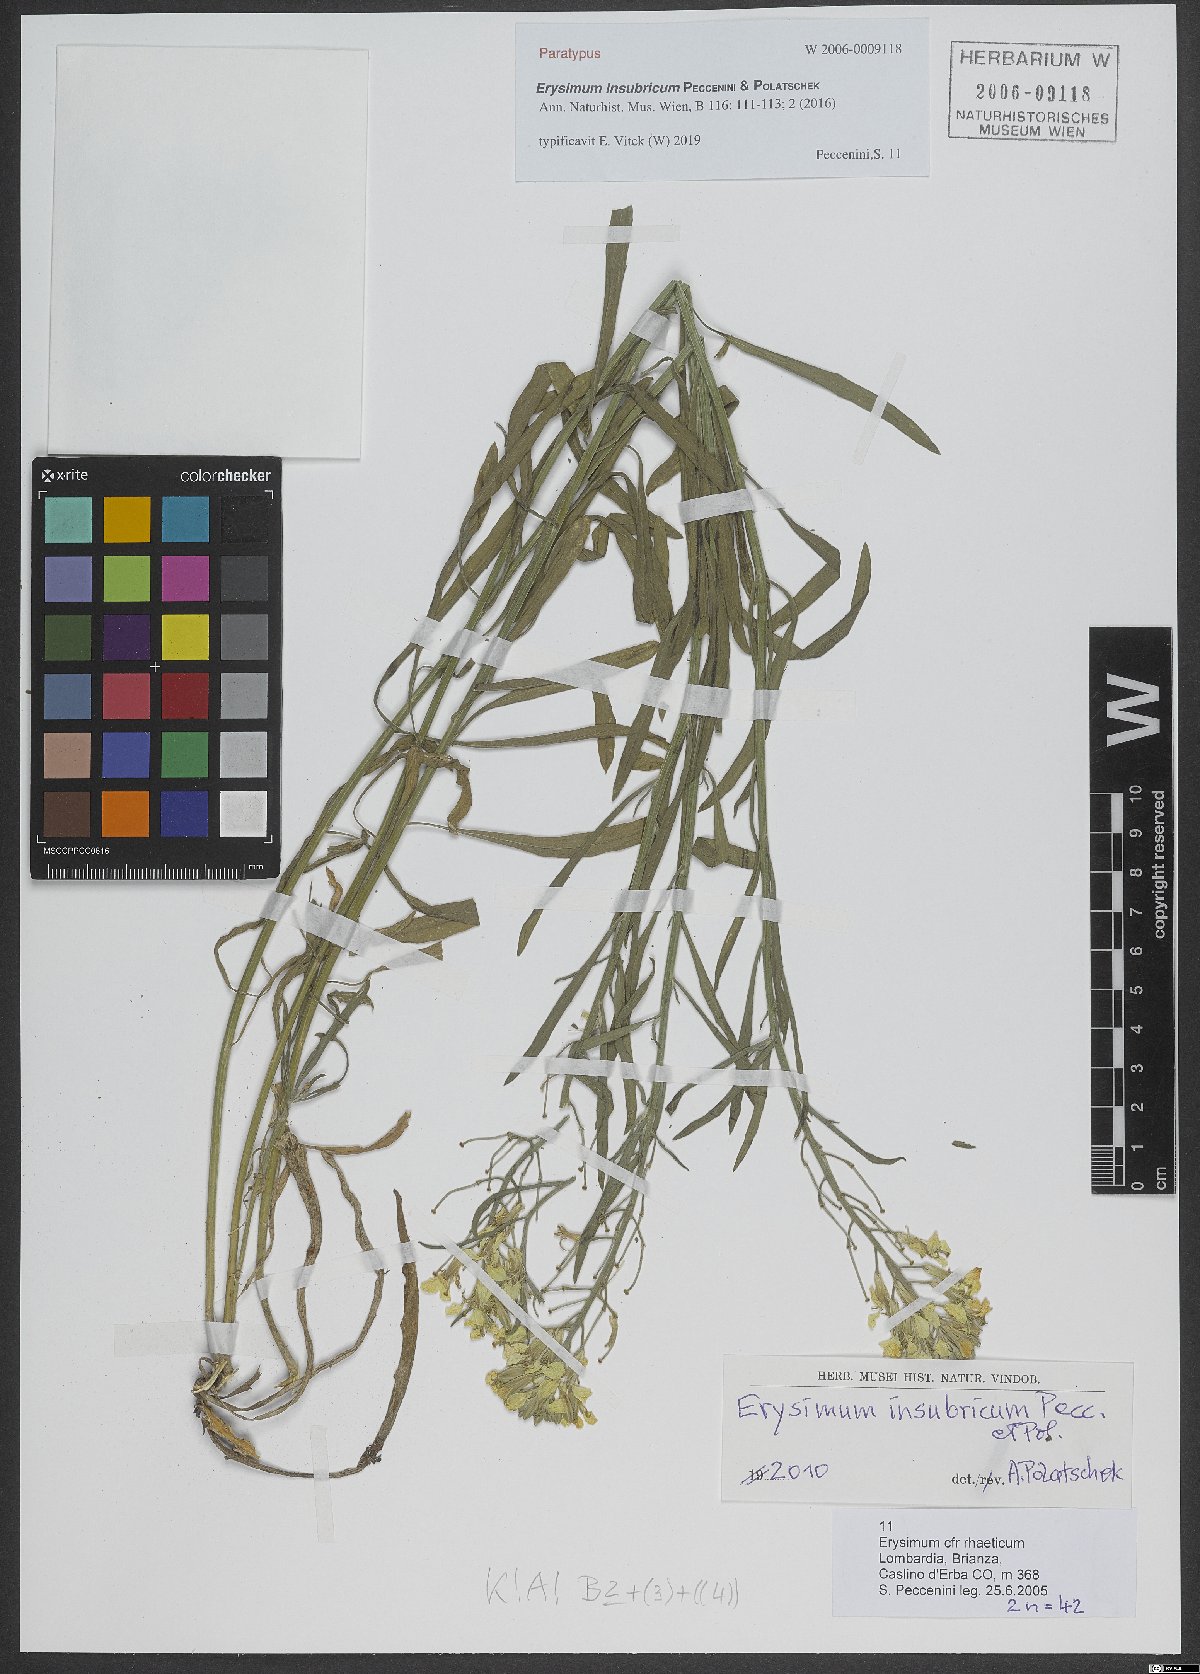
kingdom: Plantae
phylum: Tracheophyta
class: Magnoliopsida
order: Brassicales
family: Brassicaceae
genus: Erysimum
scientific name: Erysimum insubricum
